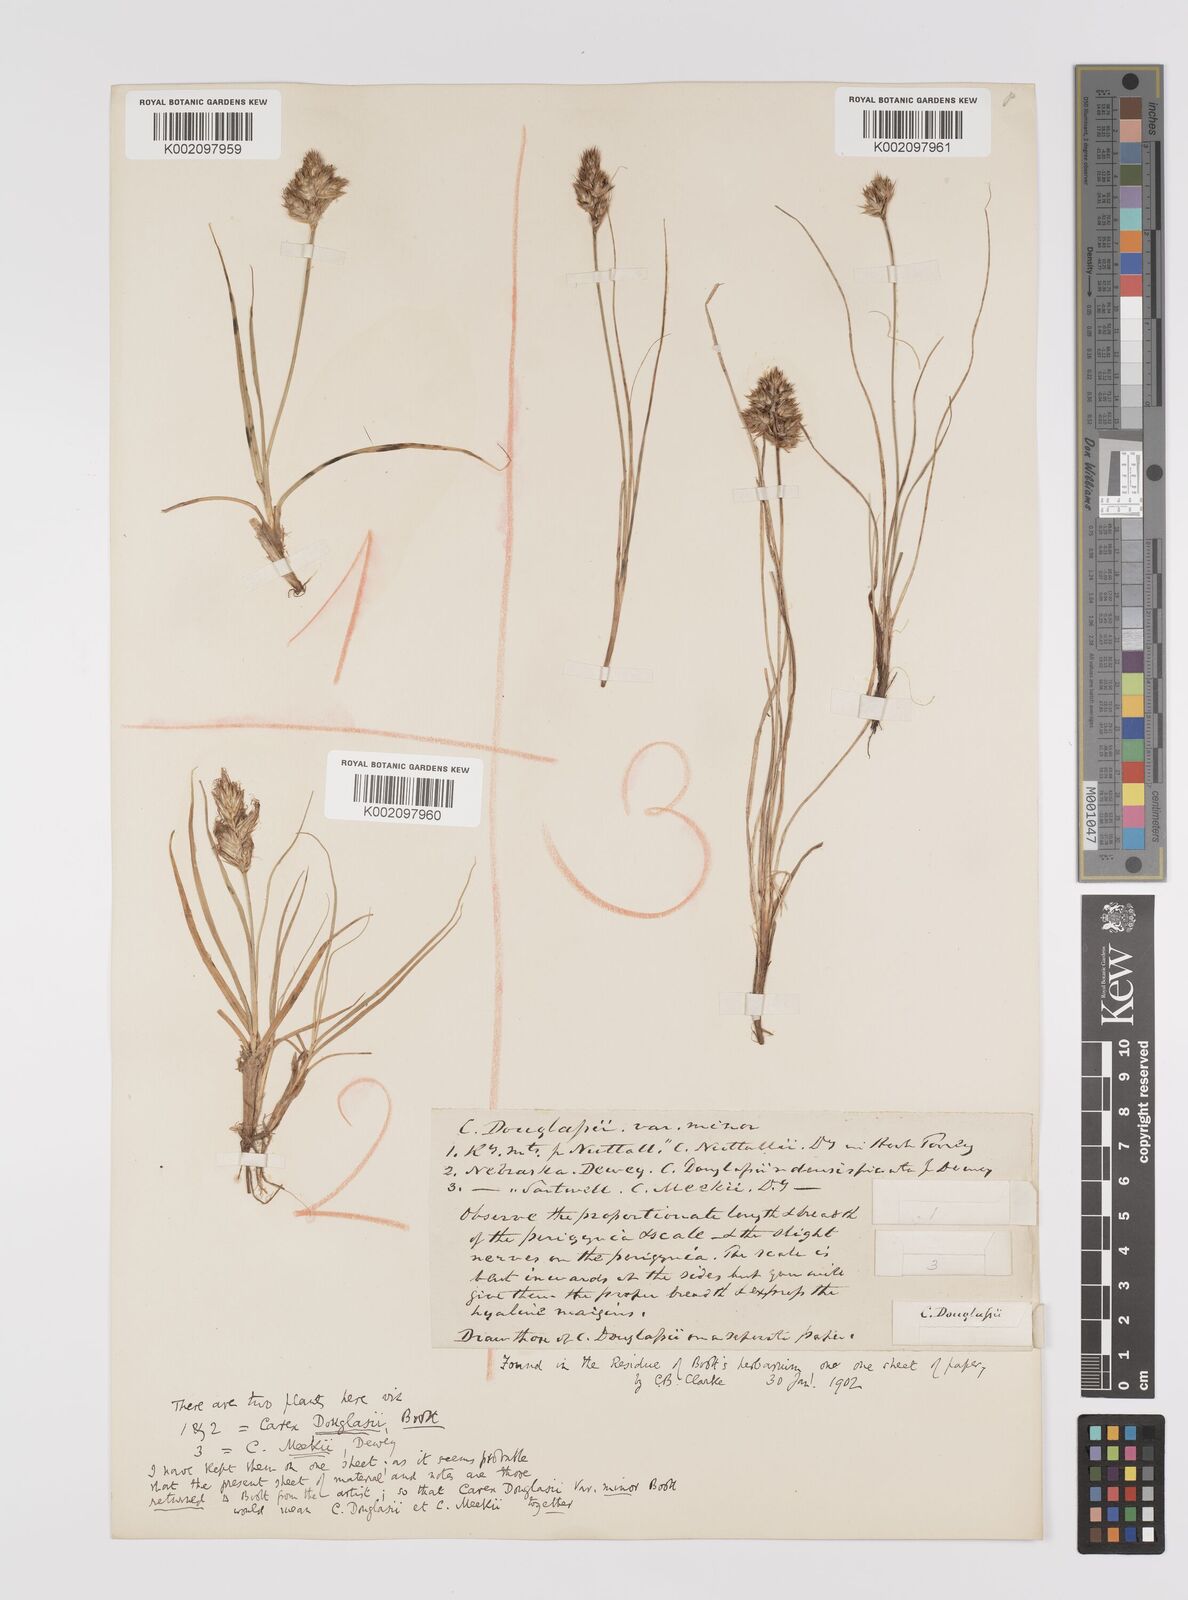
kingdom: Plantae
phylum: Tracheophyta
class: Liliopsida
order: Poales
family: Cyperaceae
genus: Carex
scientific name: Carex douglasii
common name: Douglas' sedge
